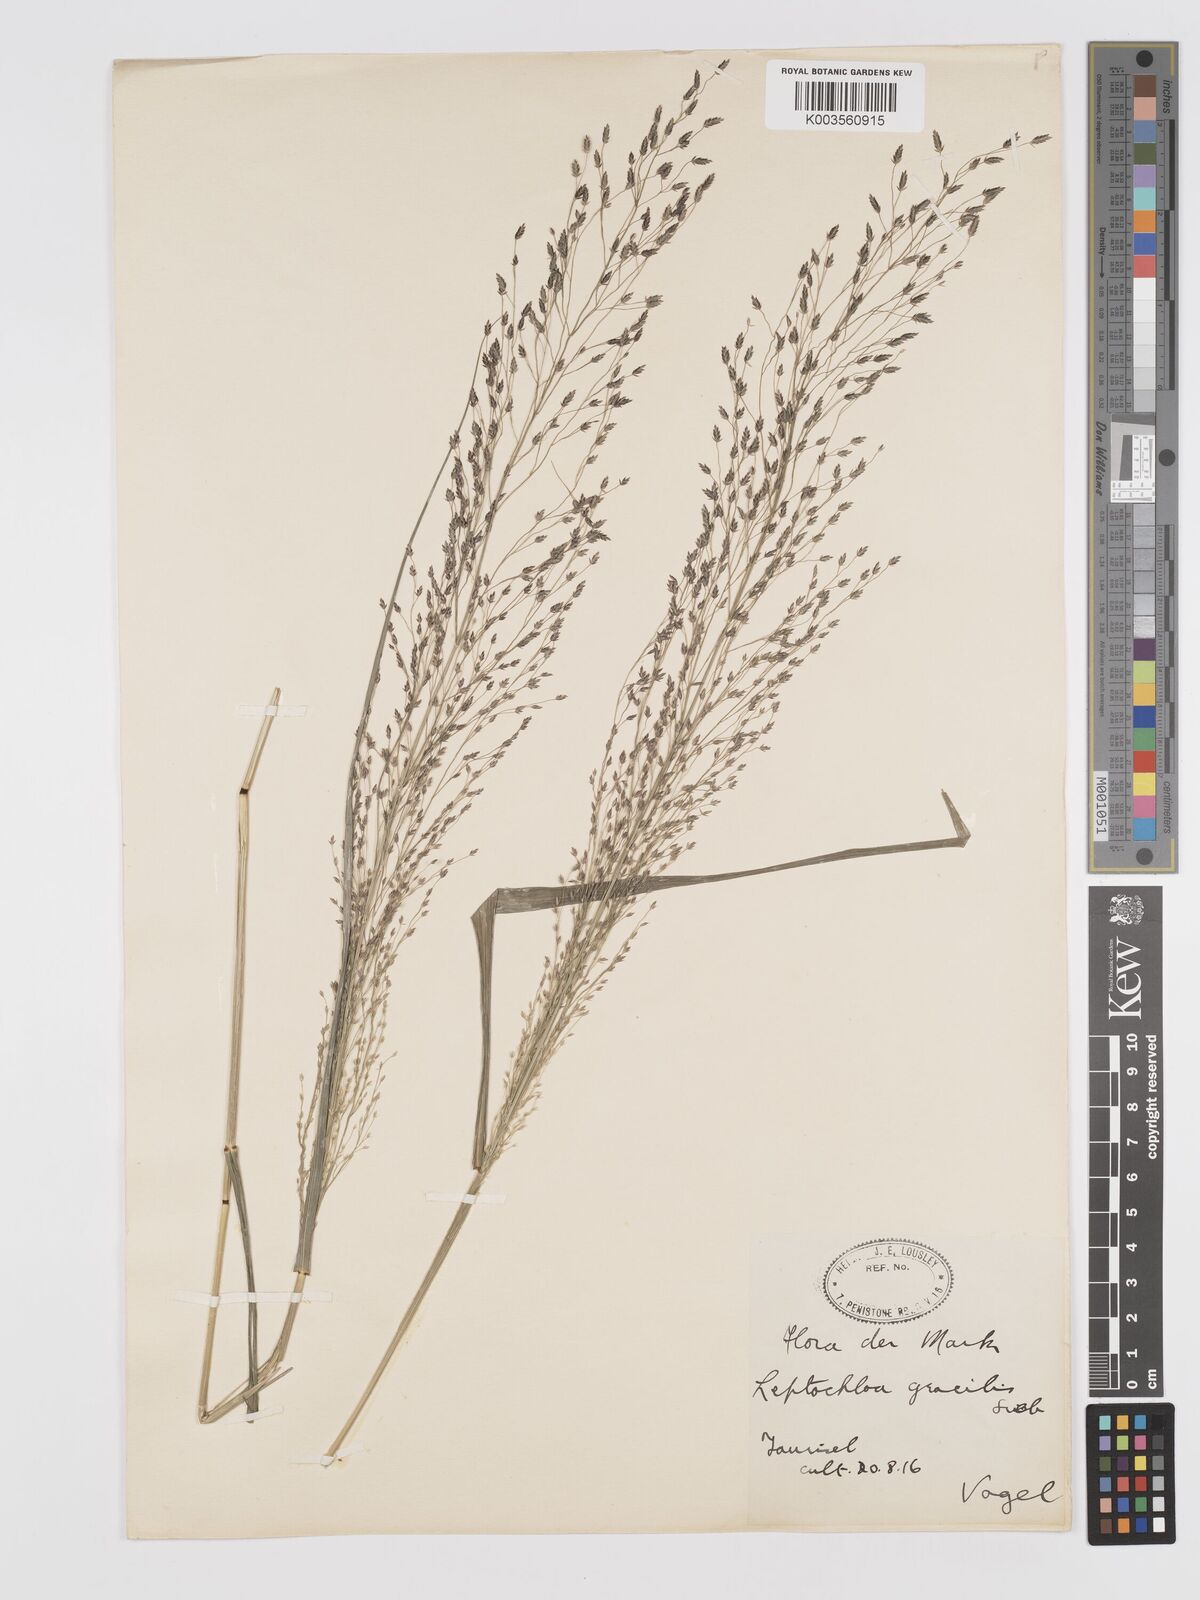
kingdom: Plantae
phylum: Tracheophyta
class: Liliopsida
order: Poales
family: Poaceae
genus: Eragrostis
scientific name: Eragrostis mexicana
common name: Mexican love grass
